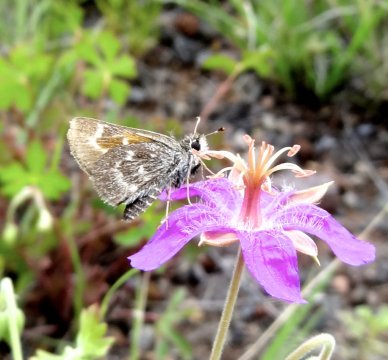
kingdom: Animalia
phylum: Arthropoda
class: Insecta
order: Lepidoptera
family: Hesperiidae
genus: Mastor
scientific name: Mastor simius
